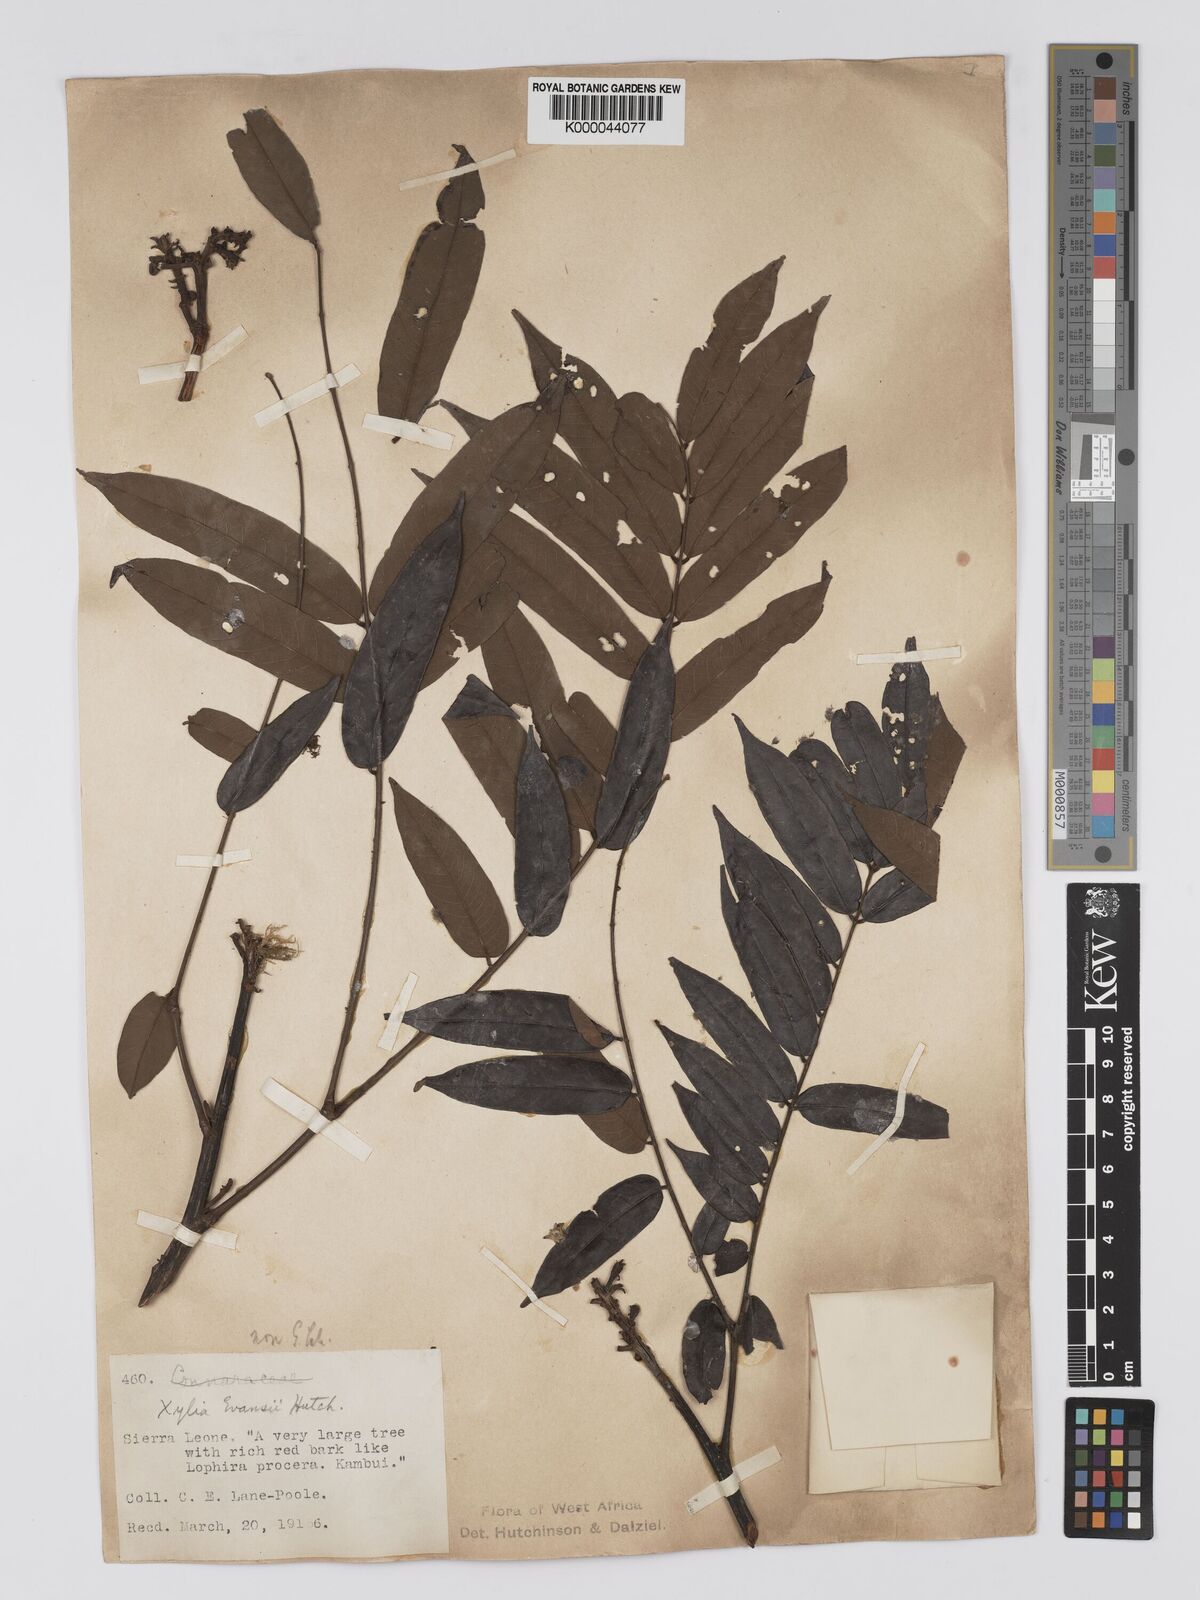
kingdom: Plantae
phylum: Tracheophyta
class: Magnoliopsida
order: Fabales
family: Fabaceae
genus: Xylia
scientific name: Xylia evansii
